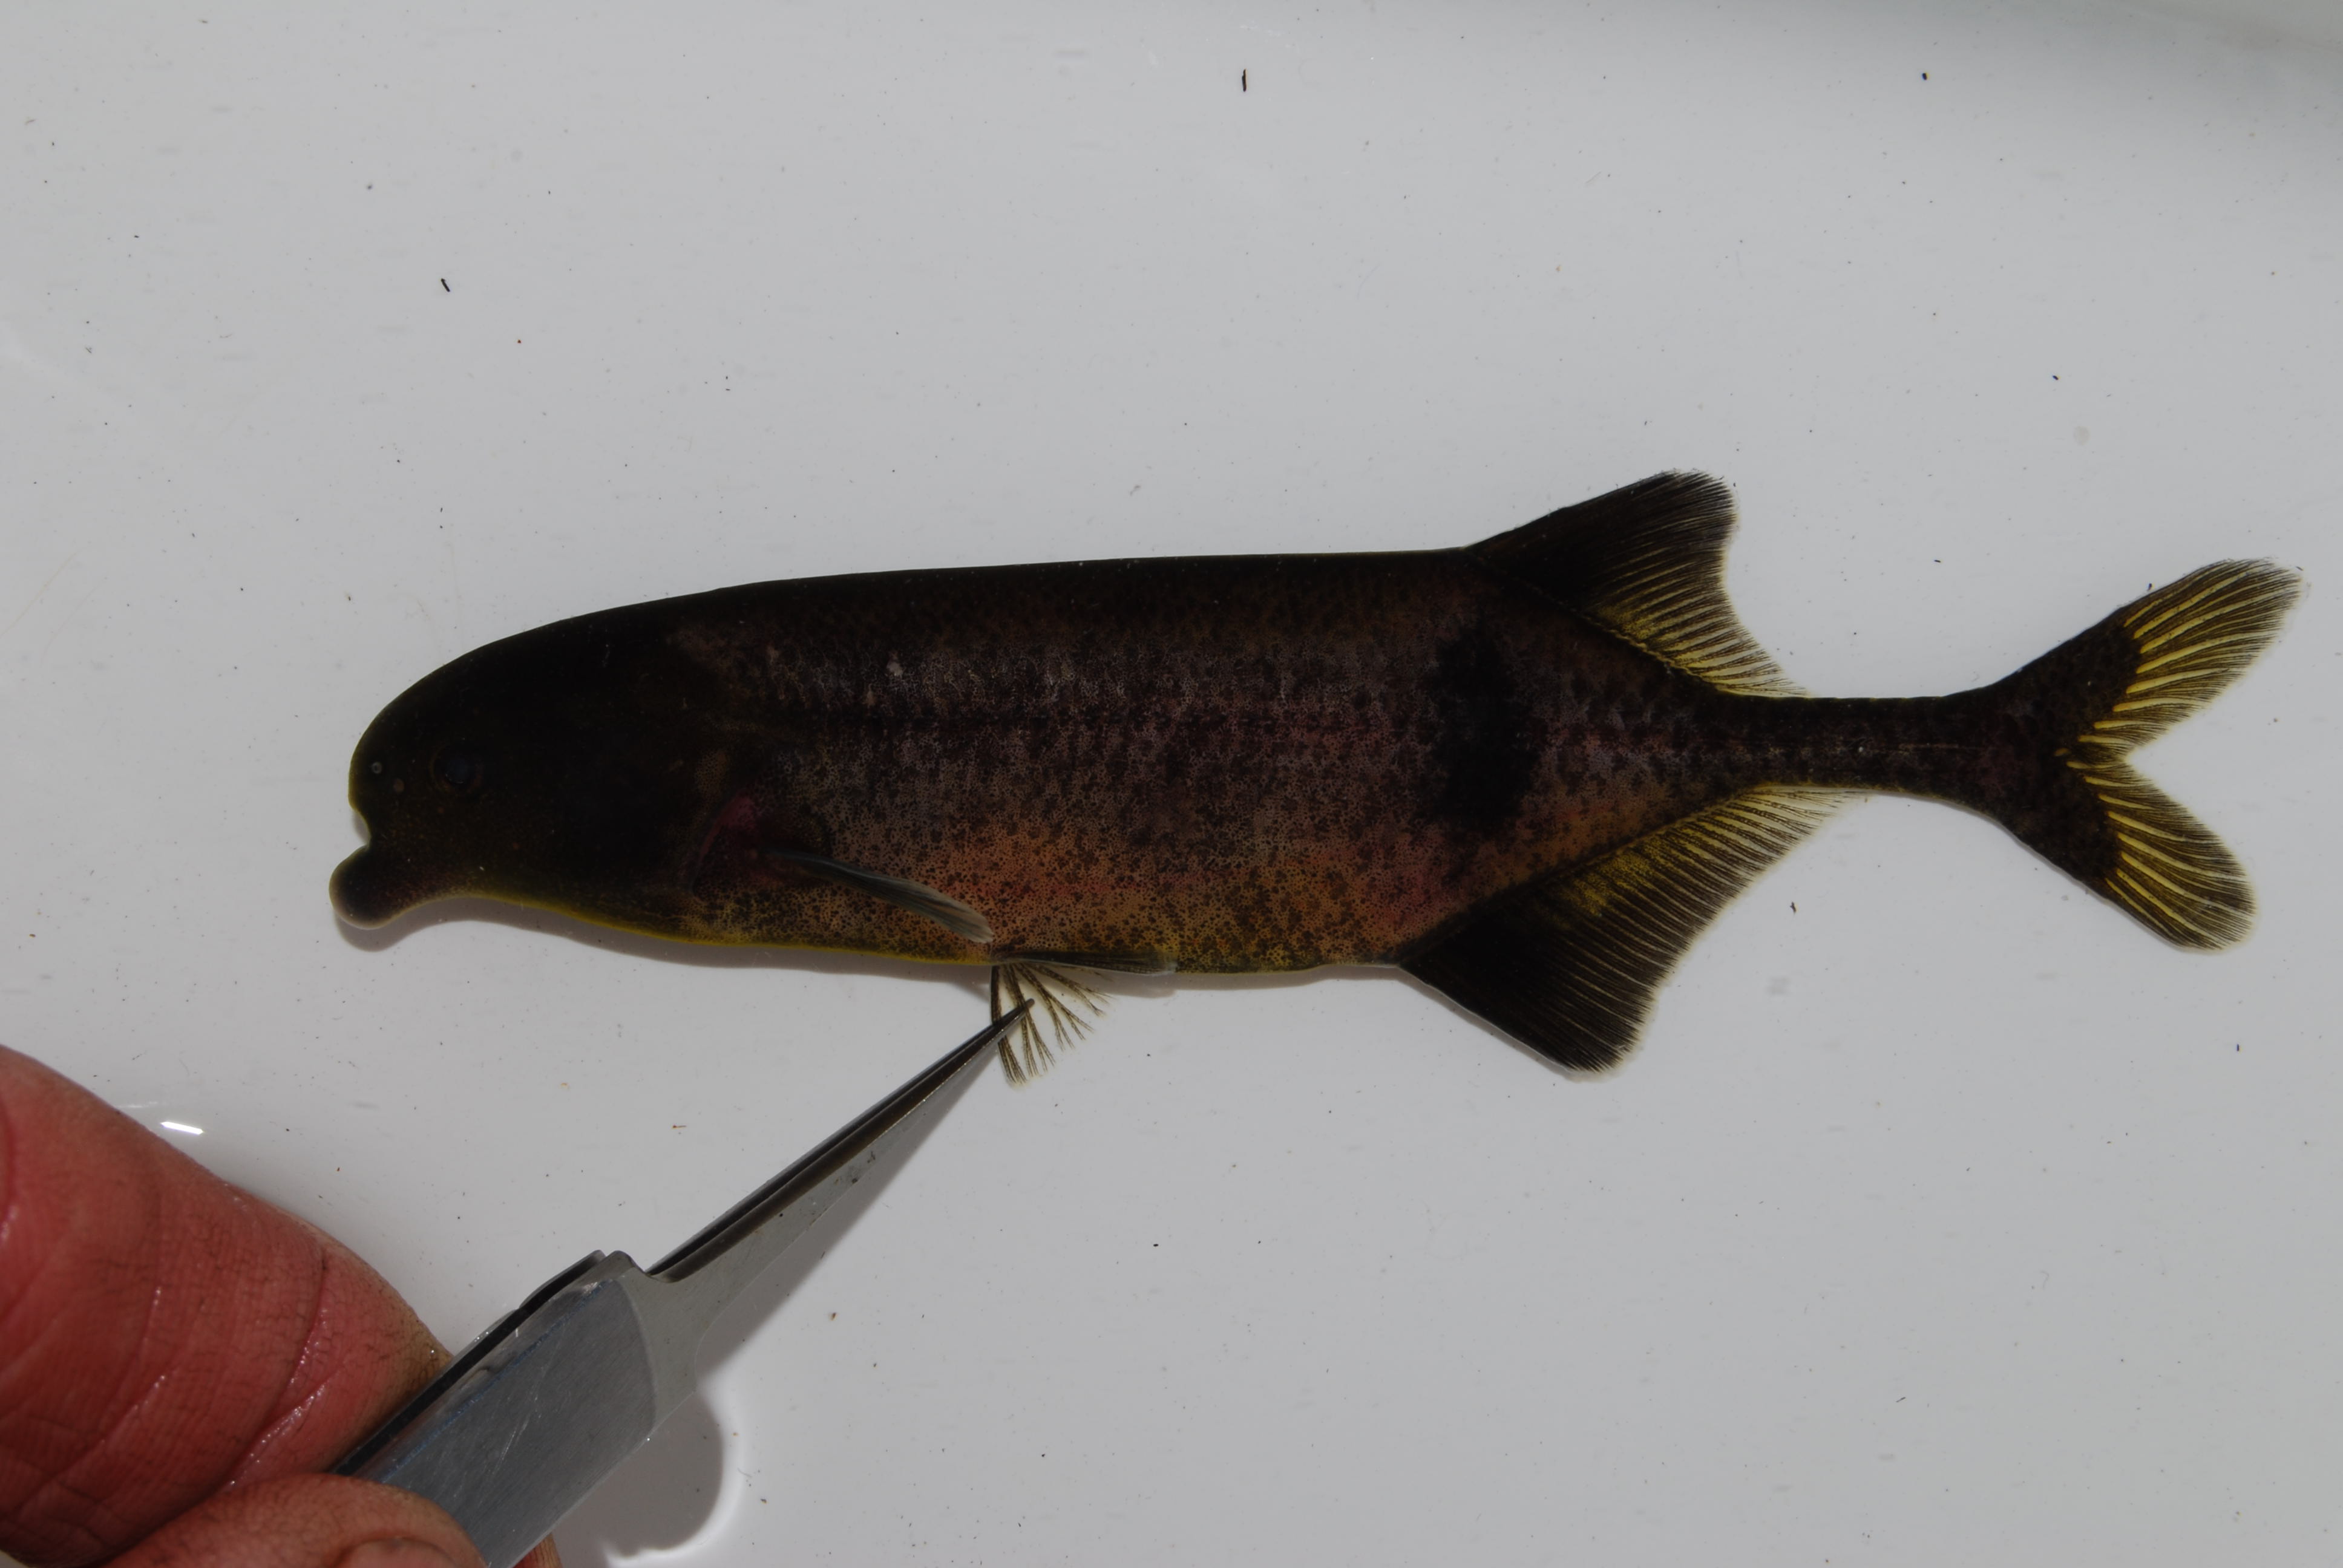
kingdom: Animalia
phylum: Chordata
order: Cyprinodontiformes
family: Poeciliidae
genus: Lacustricola
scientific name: Lacustricola katangae
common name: Striped topminnow
